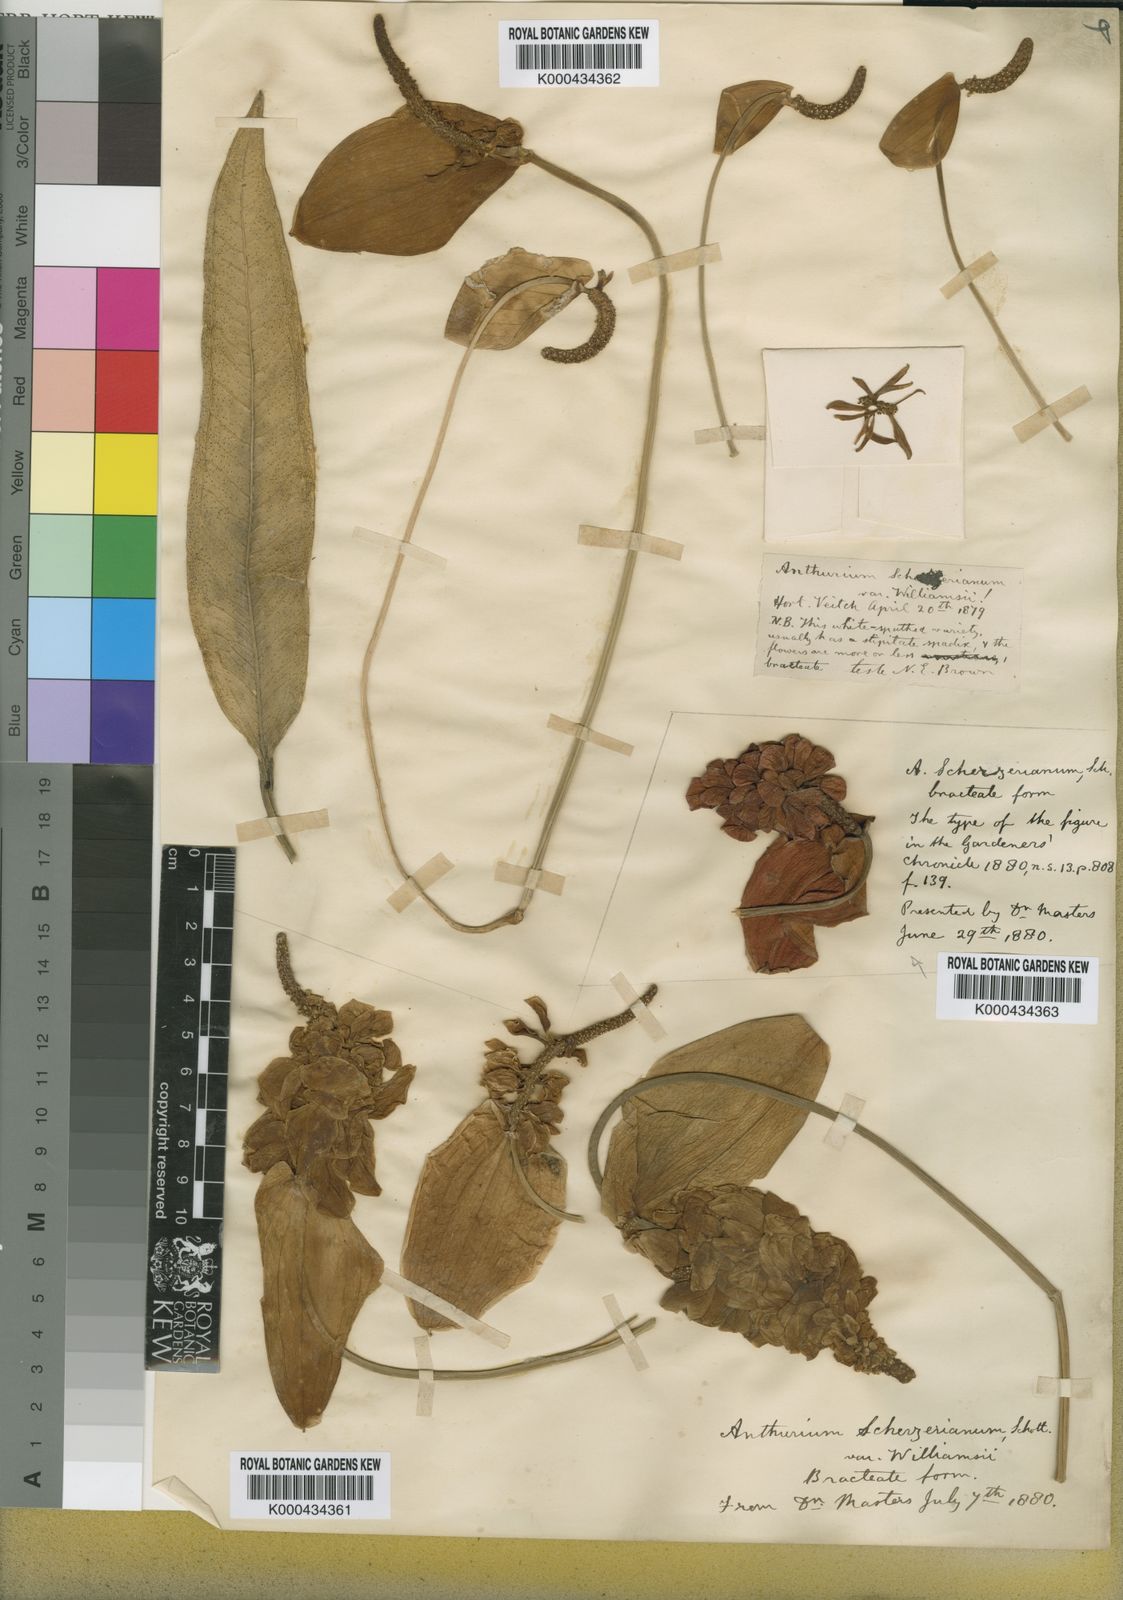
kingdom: Plantae
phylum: Tracheophyta
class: Liliopsida
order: Alismatales
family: Araceae
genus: Anthurium
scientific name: Anthurium scherzerianum
